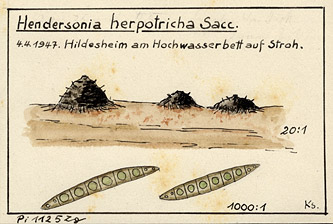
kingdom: Fungi
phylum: Ascomycota
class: Dothideomycetes
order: Pleosporales
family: Phaeosphaeriaceae
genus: Hendersonia
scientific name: Hendersonia herpotricha
